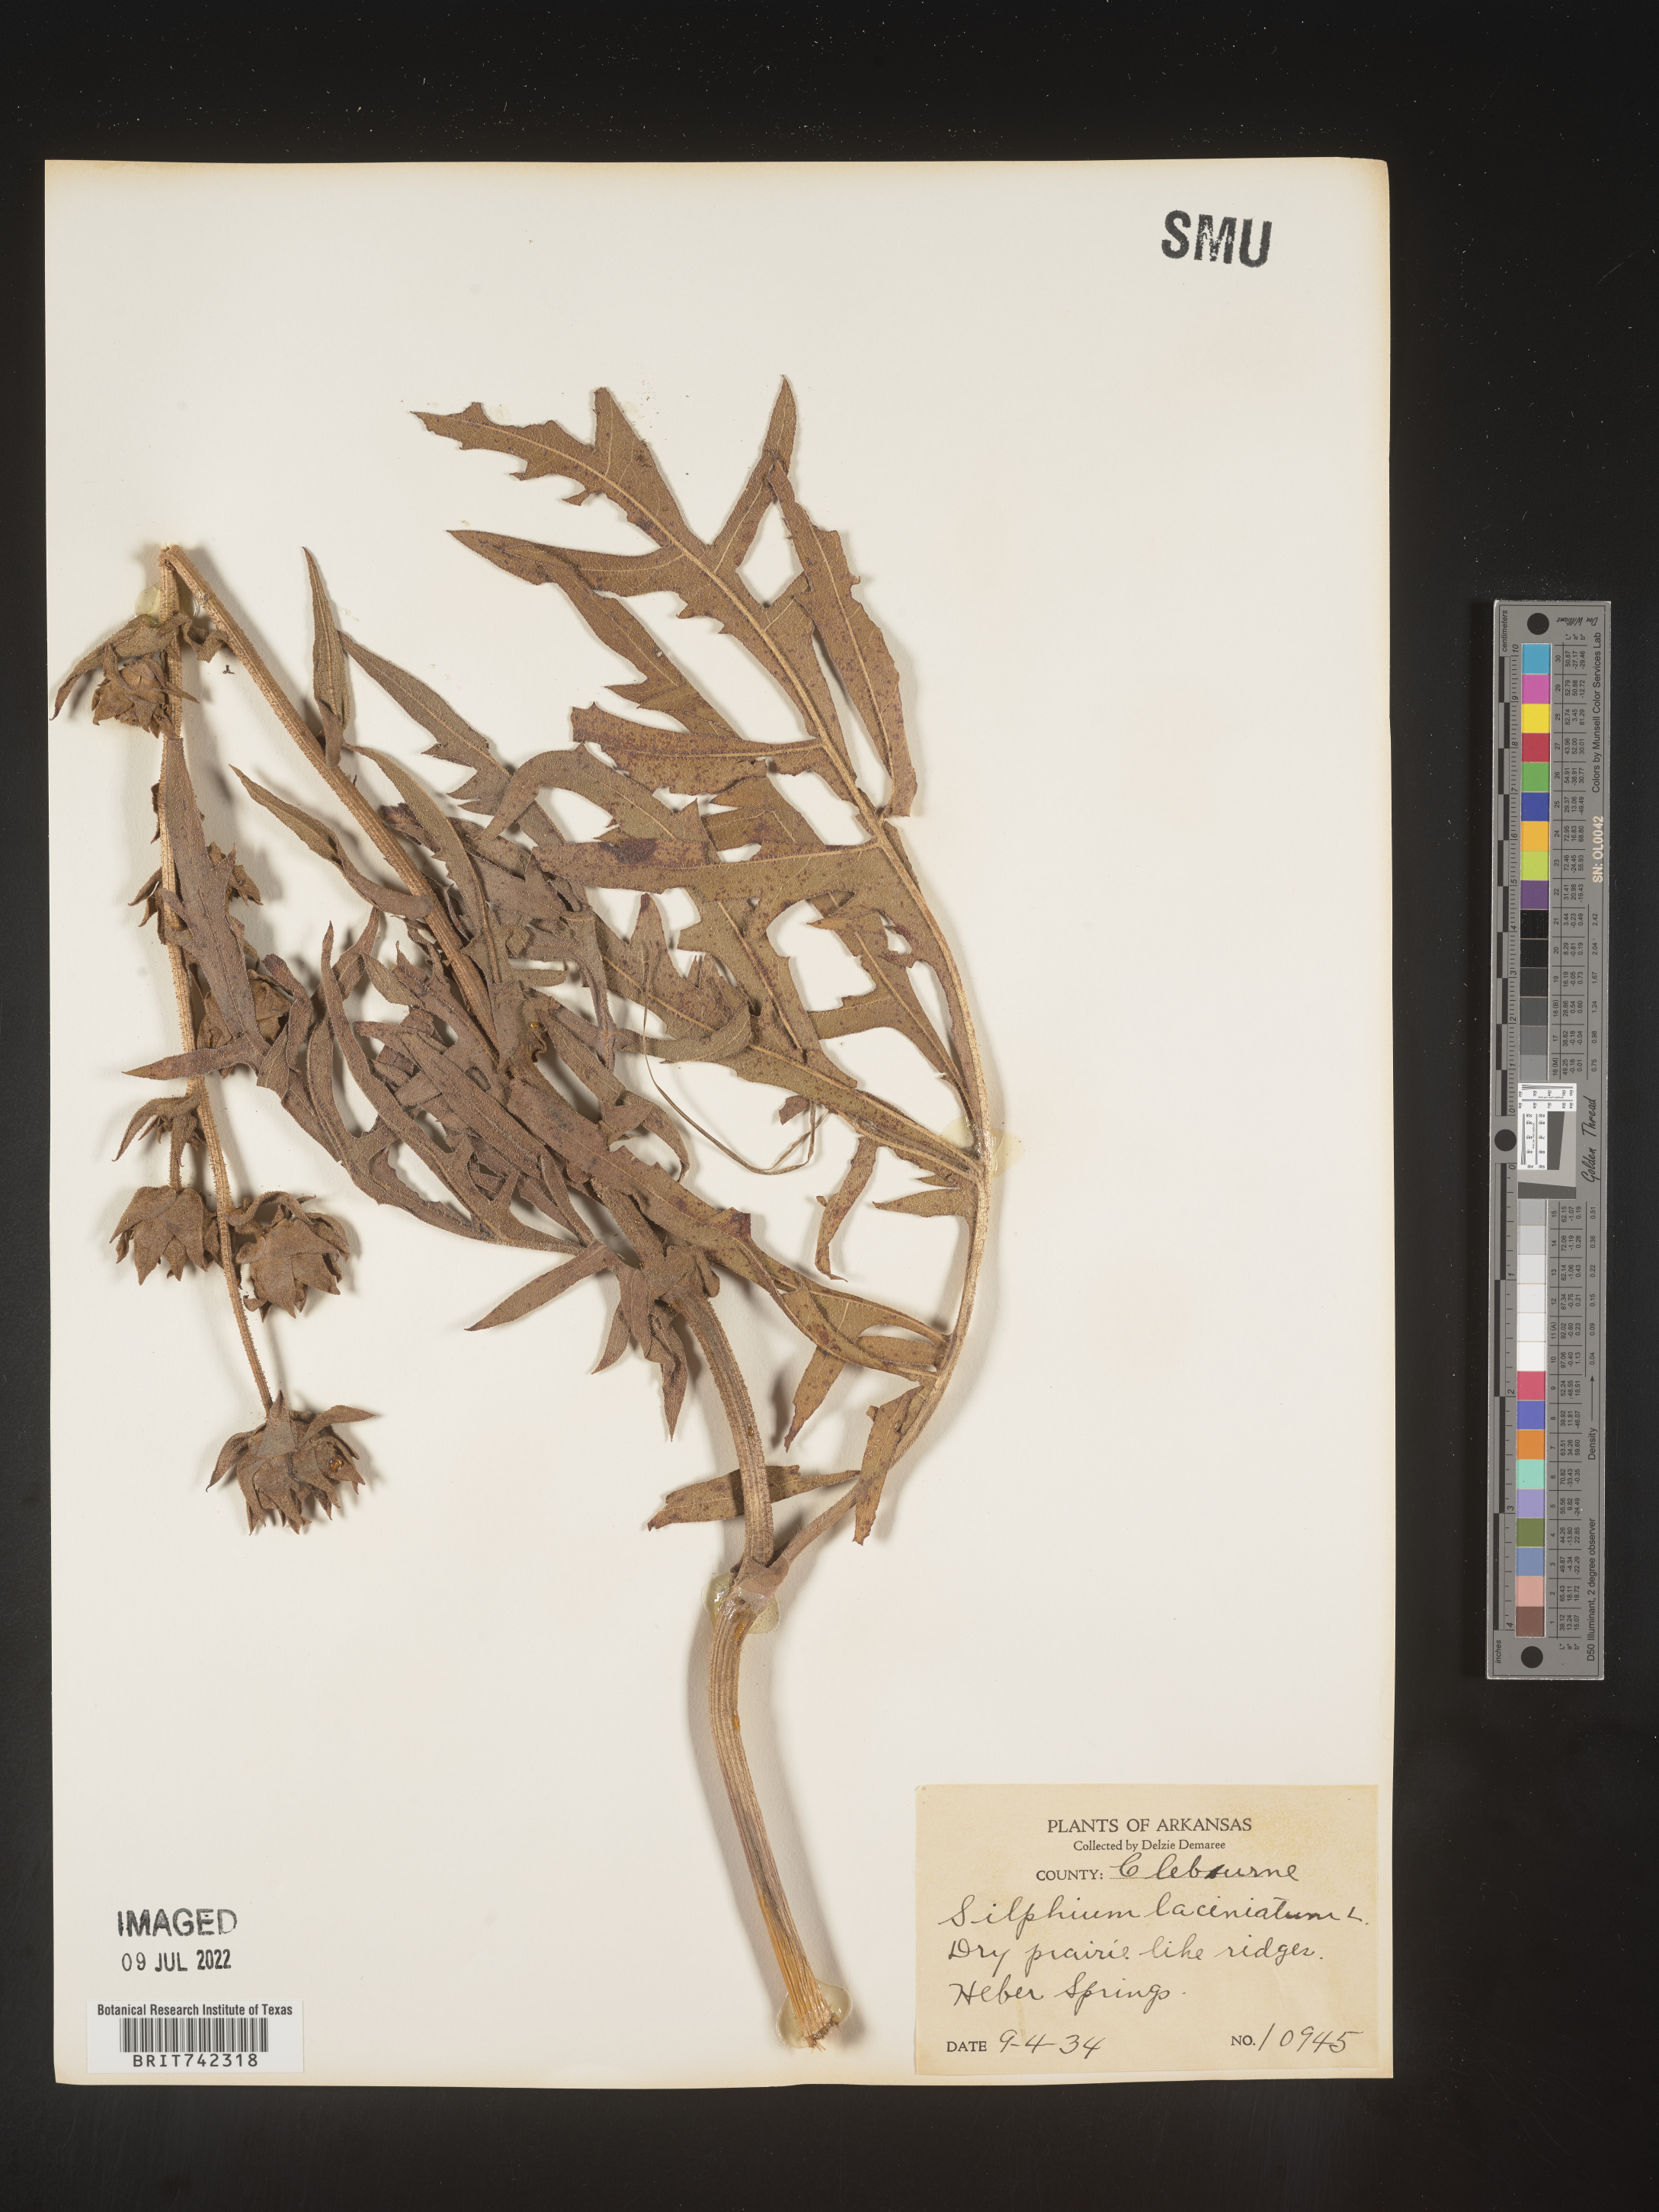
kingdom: Plantae
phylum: Tracheophyta
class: Magnoliopsida
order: Asterales
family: Asteraceae
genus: Silphium
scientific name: Silphium laciniatum
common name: Polarplant
